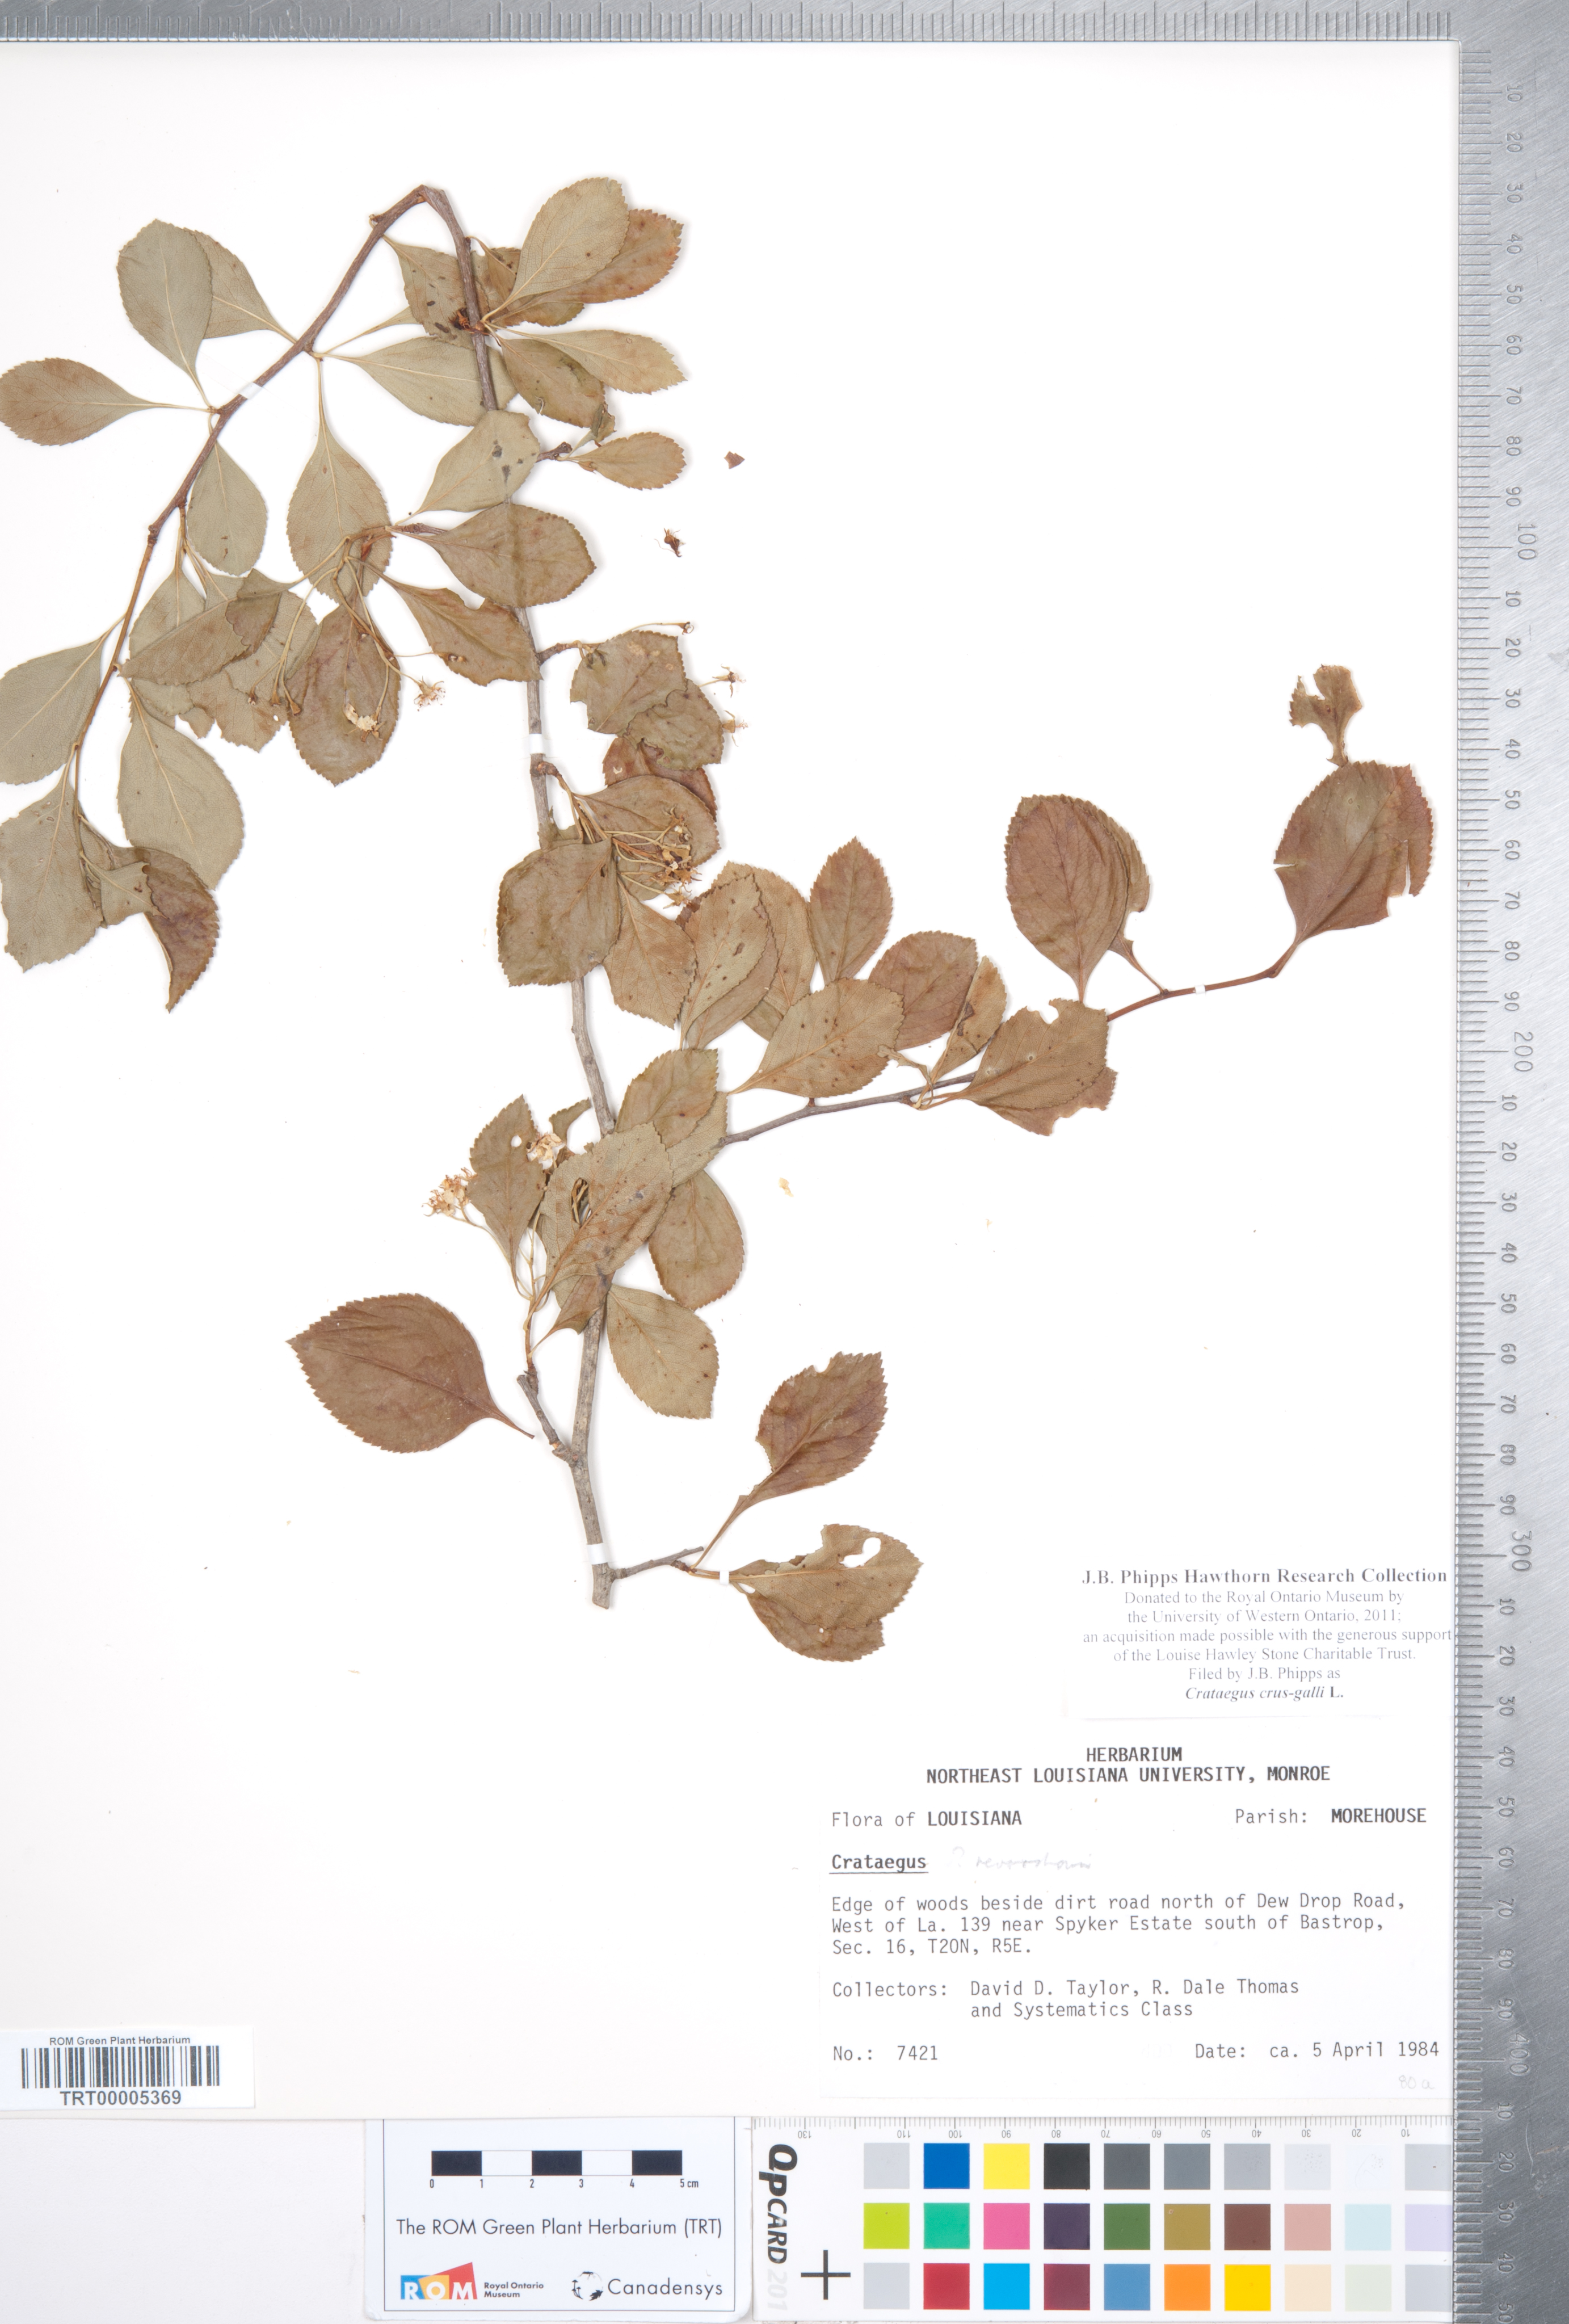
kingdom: Plantae
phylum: Tracheophyta
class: Magnoliopsida
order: Rosales
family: Rosaceae
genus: Crataegus
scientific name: Crataegus crus-galli
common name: Cockspurthorn
